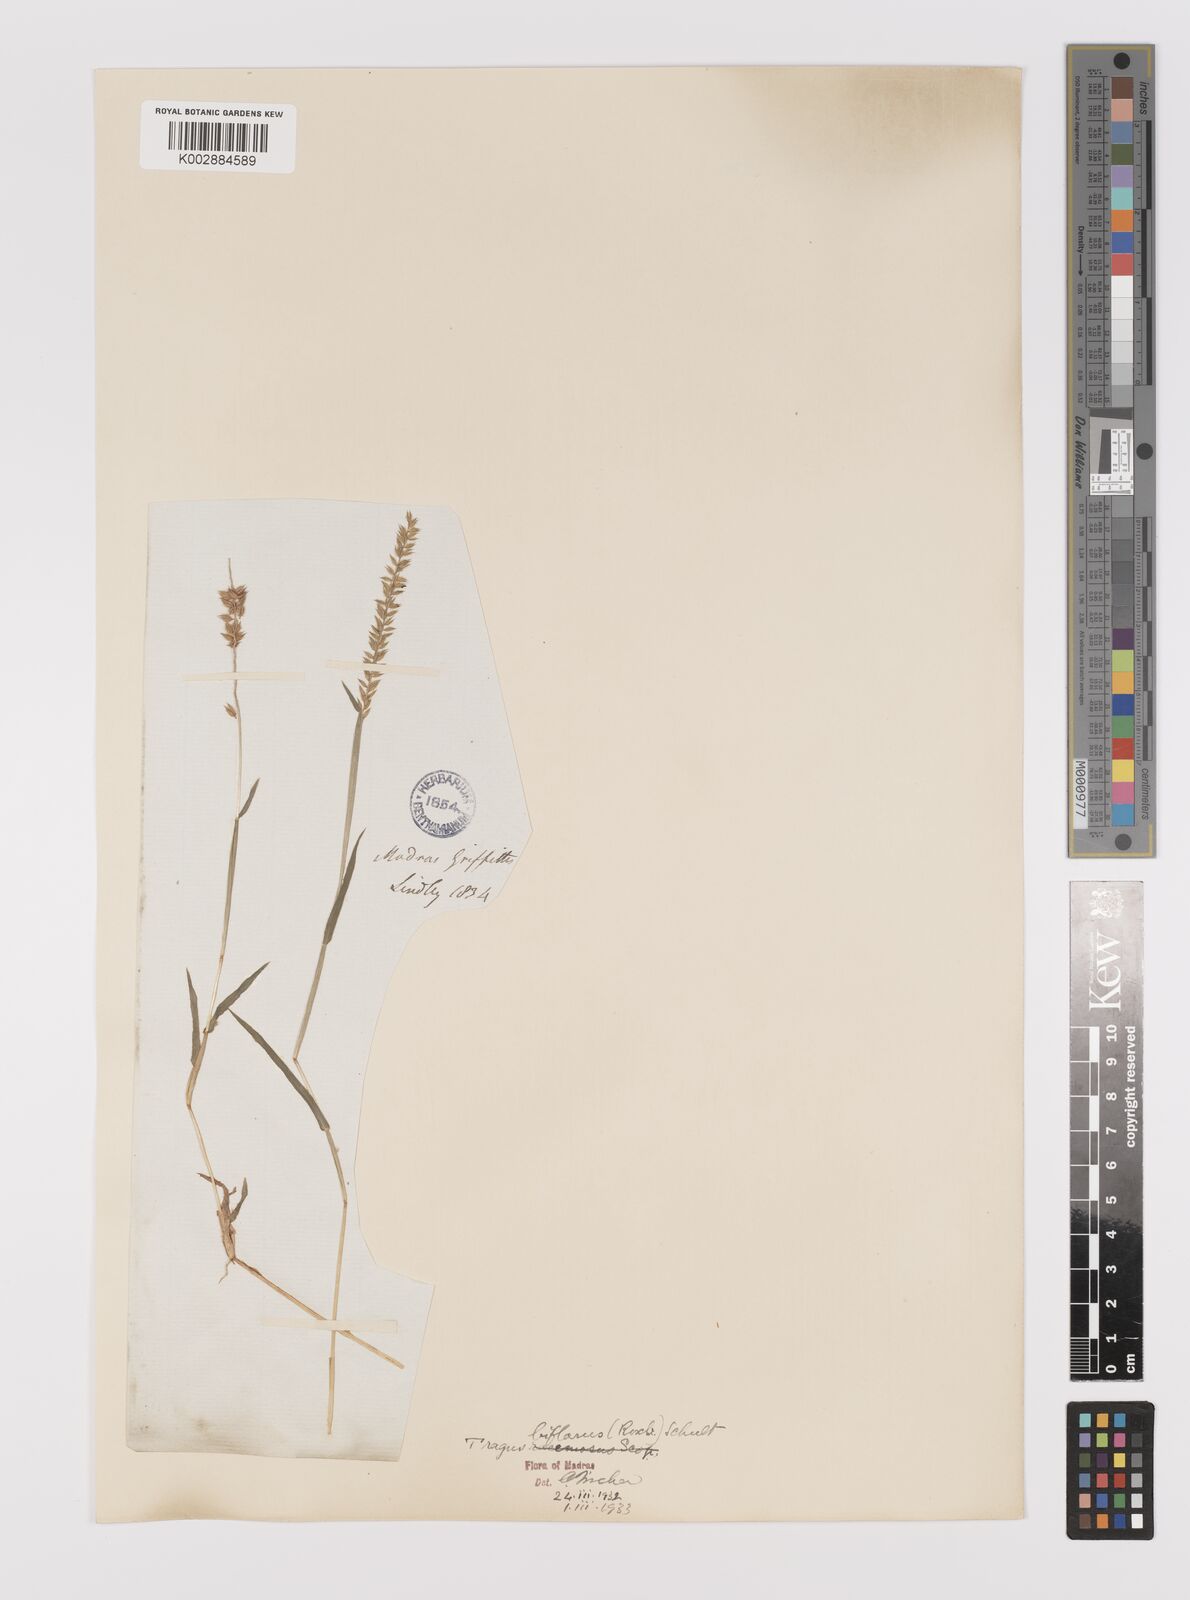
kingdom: Plantae
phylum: Tracheophyta
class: Liliopsida
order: Poales
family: Poaceae
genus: Tragus
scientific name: Tragus mongolorum
